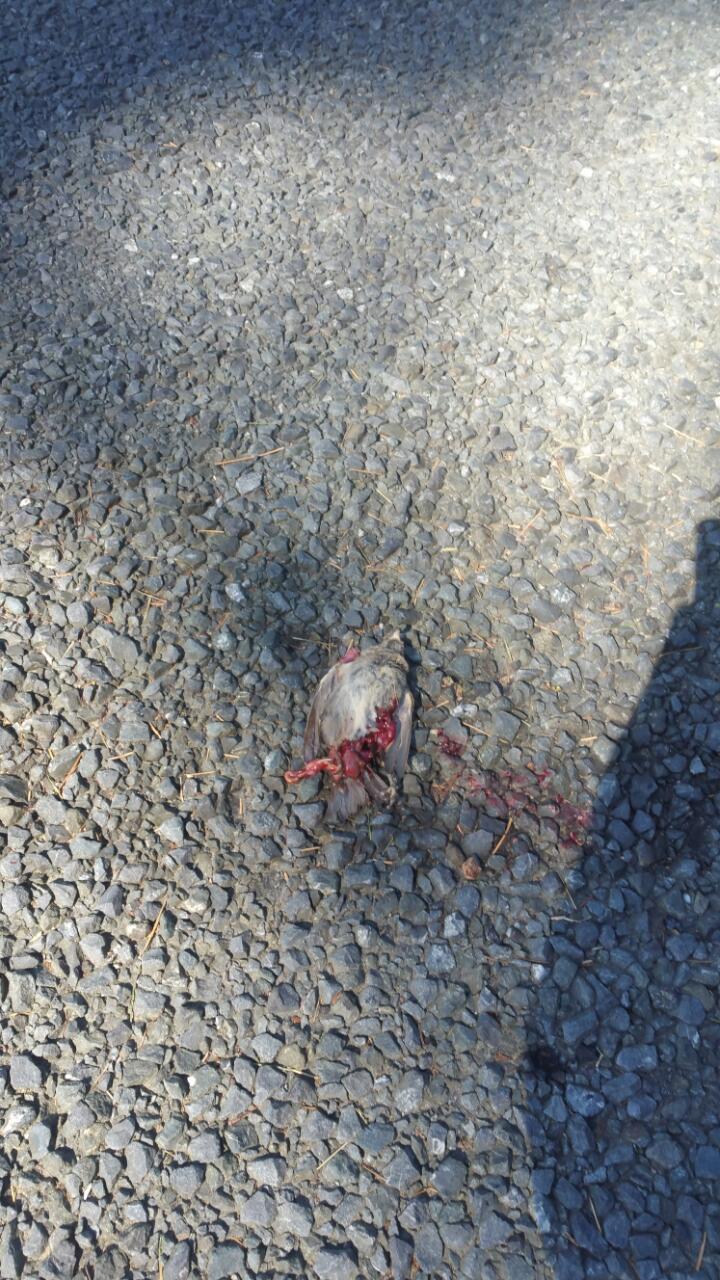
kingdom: Animalia
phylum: Chordata
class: Aves
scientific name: Aves
